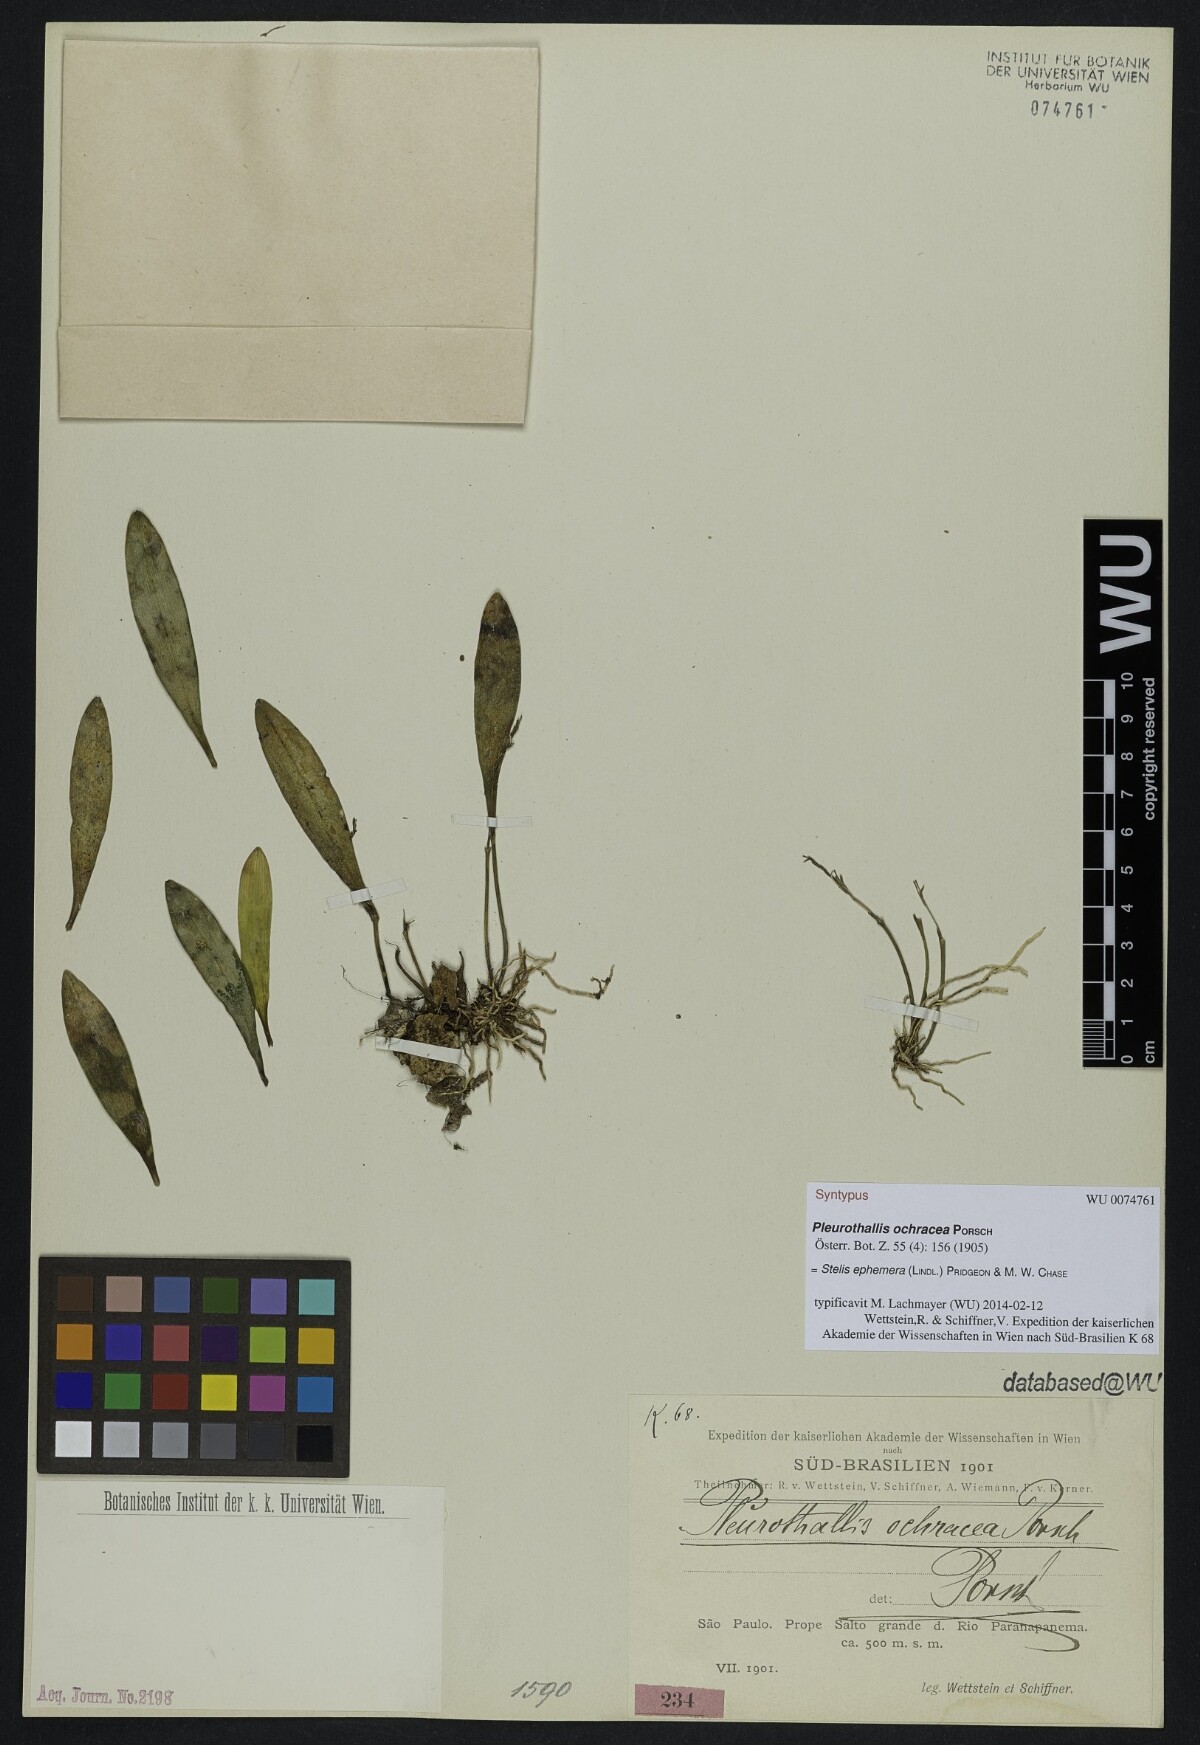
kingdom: Plantae
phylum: Tracheophyta
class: Liliopsida
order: Asparagales
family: Orchidaceae
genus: Pabstiella
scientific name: Pabstiella ephemera
